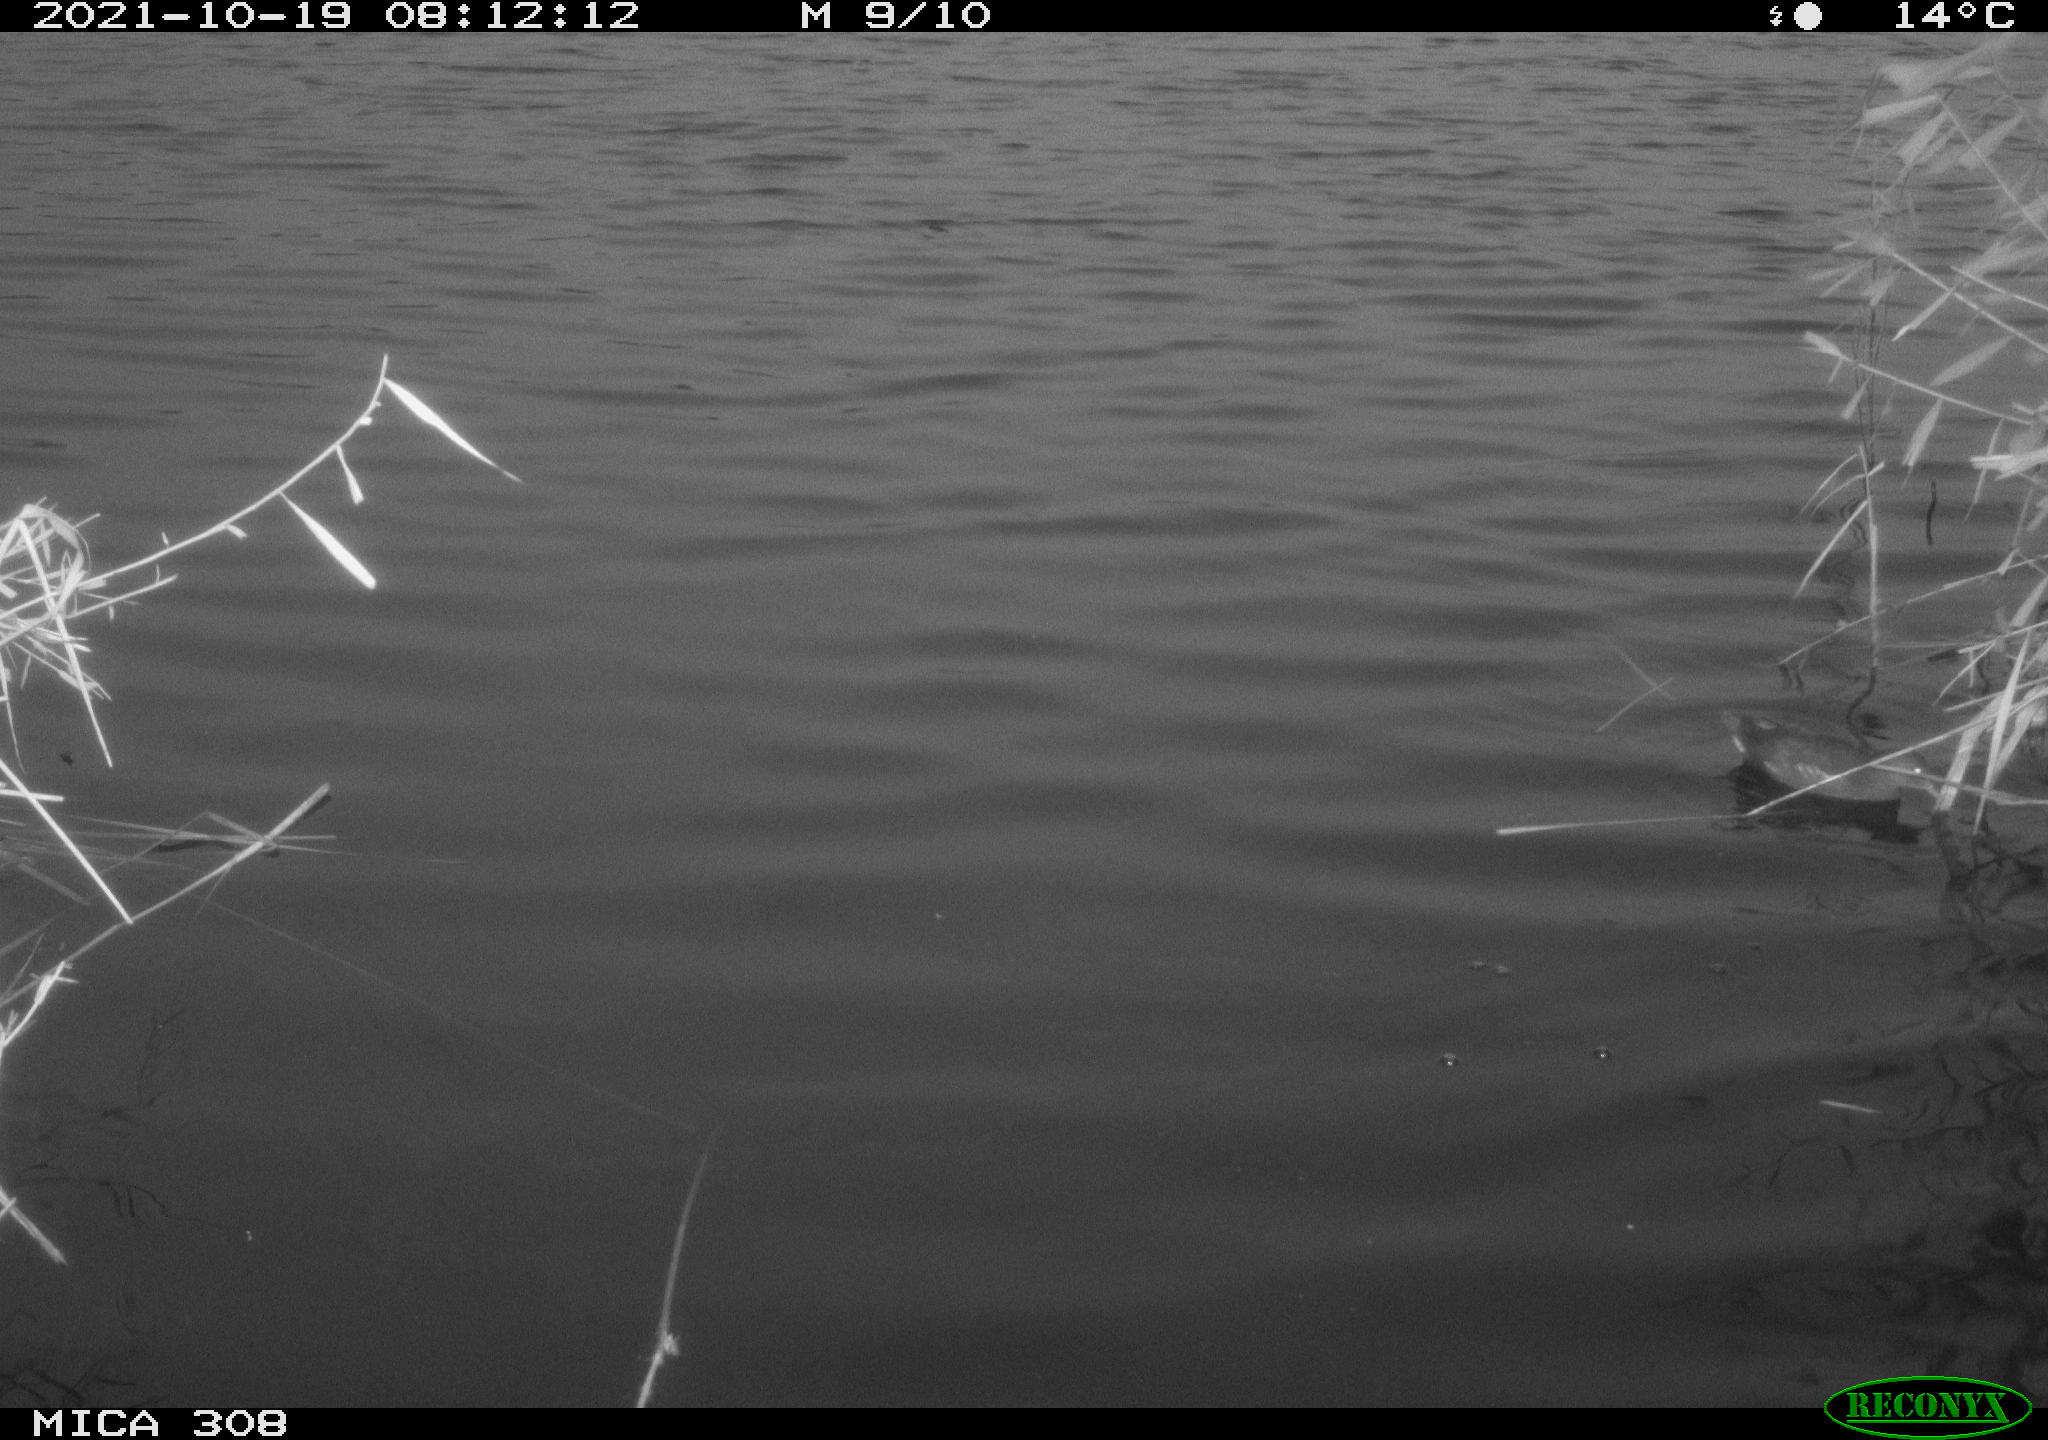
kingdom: Animalia
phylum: Chordata
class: Aves
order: Gruiformes
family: Rallidae
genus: Gallinula
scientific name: Gallinula chloropus
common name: Common moorhen
